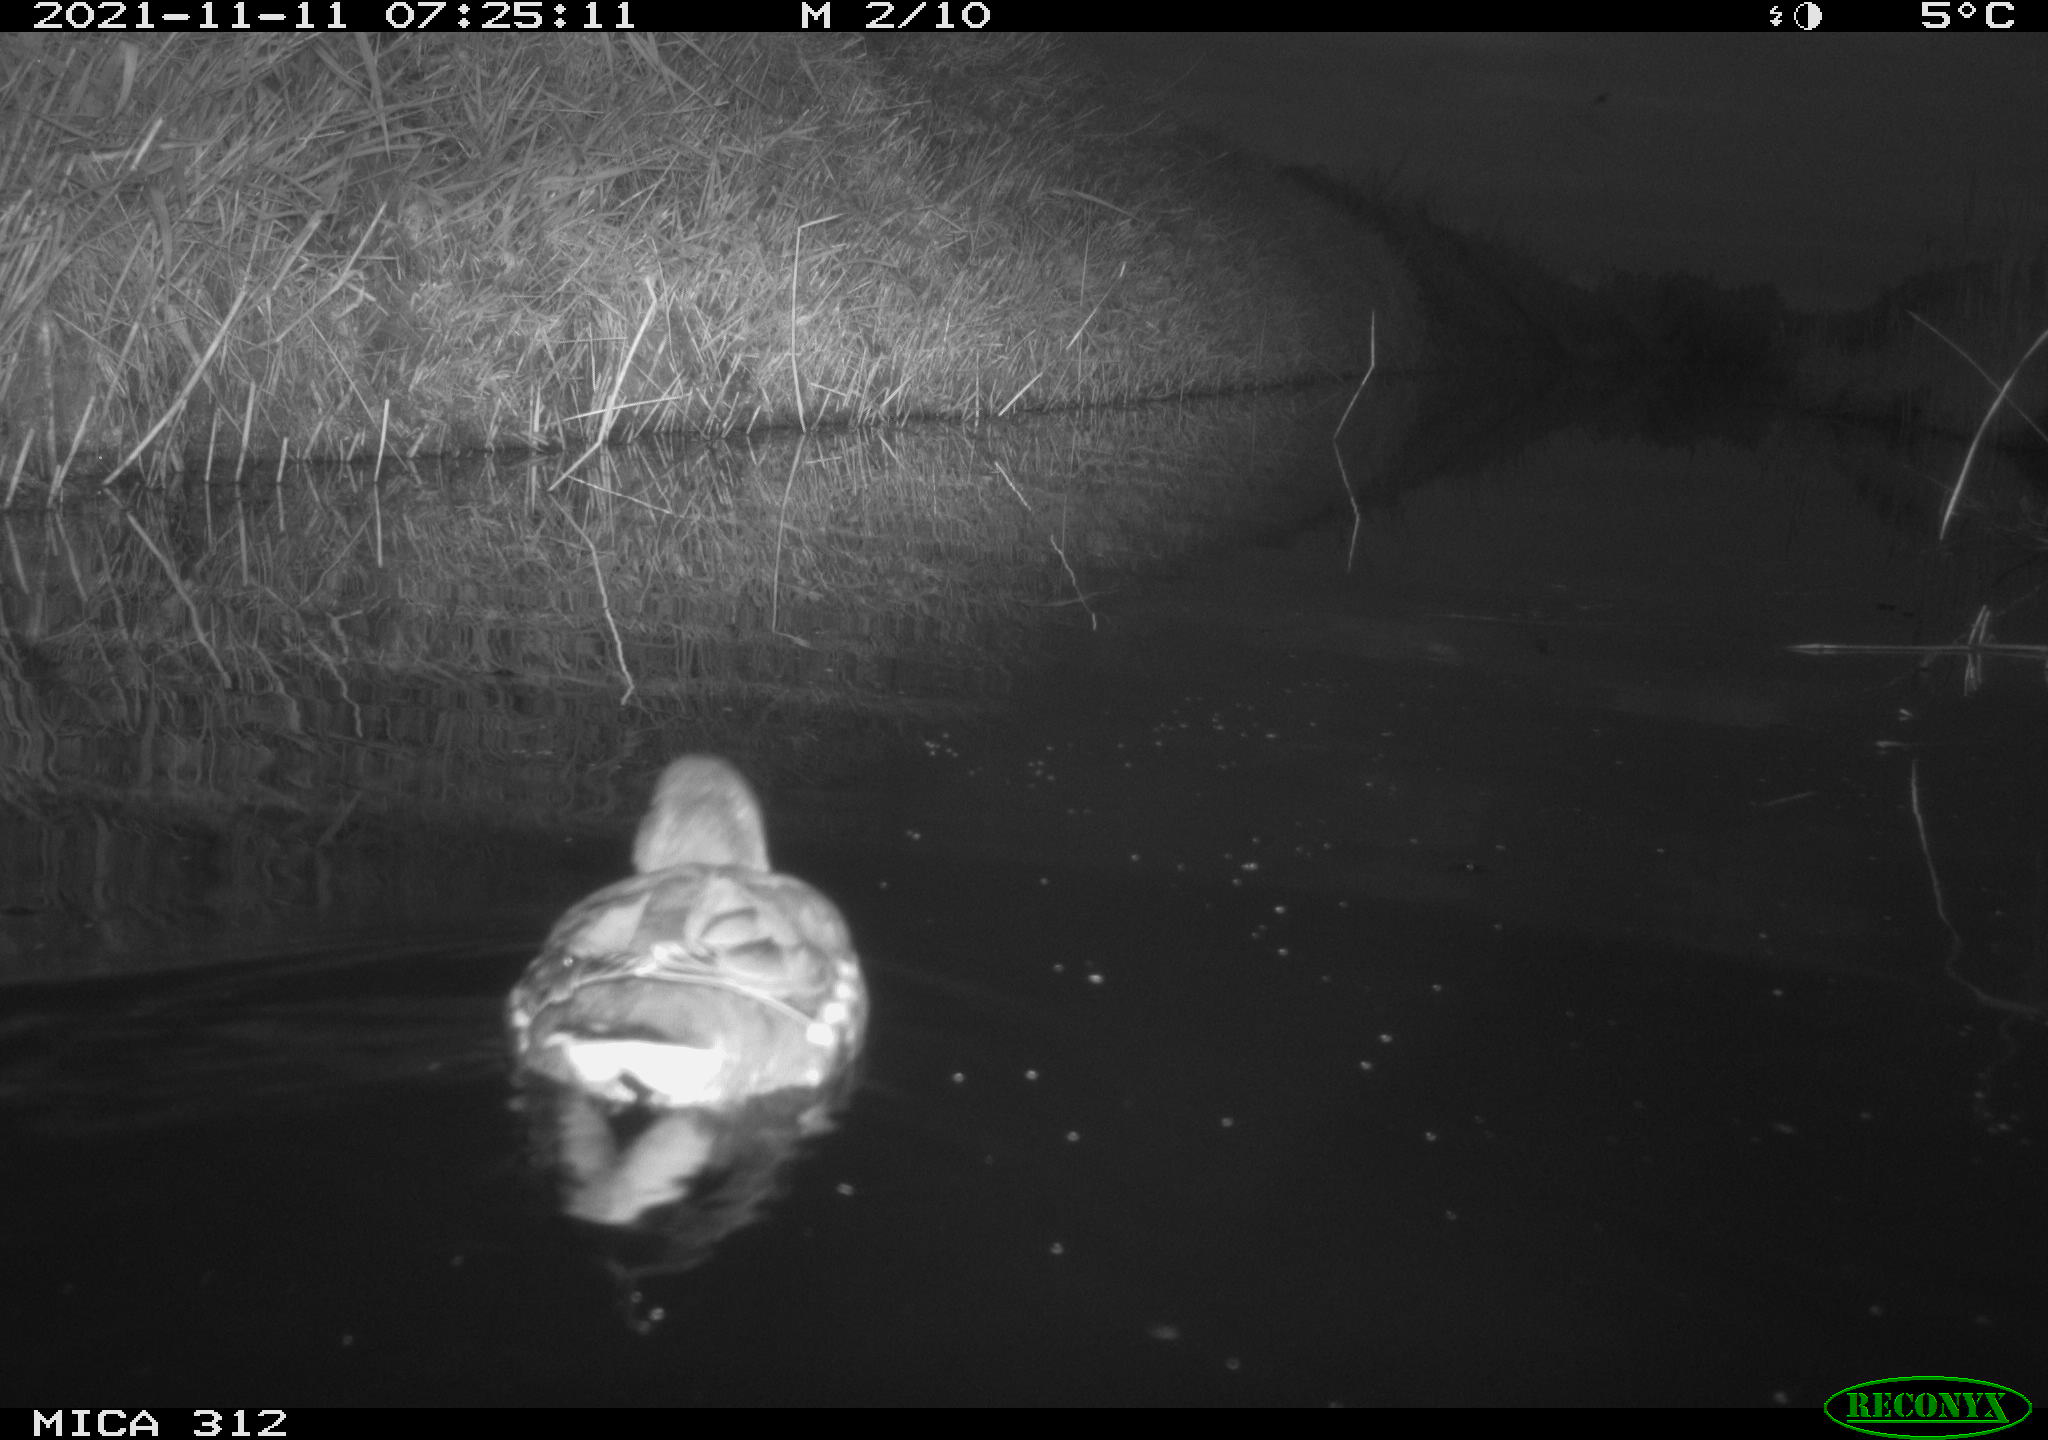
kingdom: Animalia
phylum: Chordata
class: Aves
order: Anseriformes
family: Anatidae
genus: Anas
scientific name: Anas
